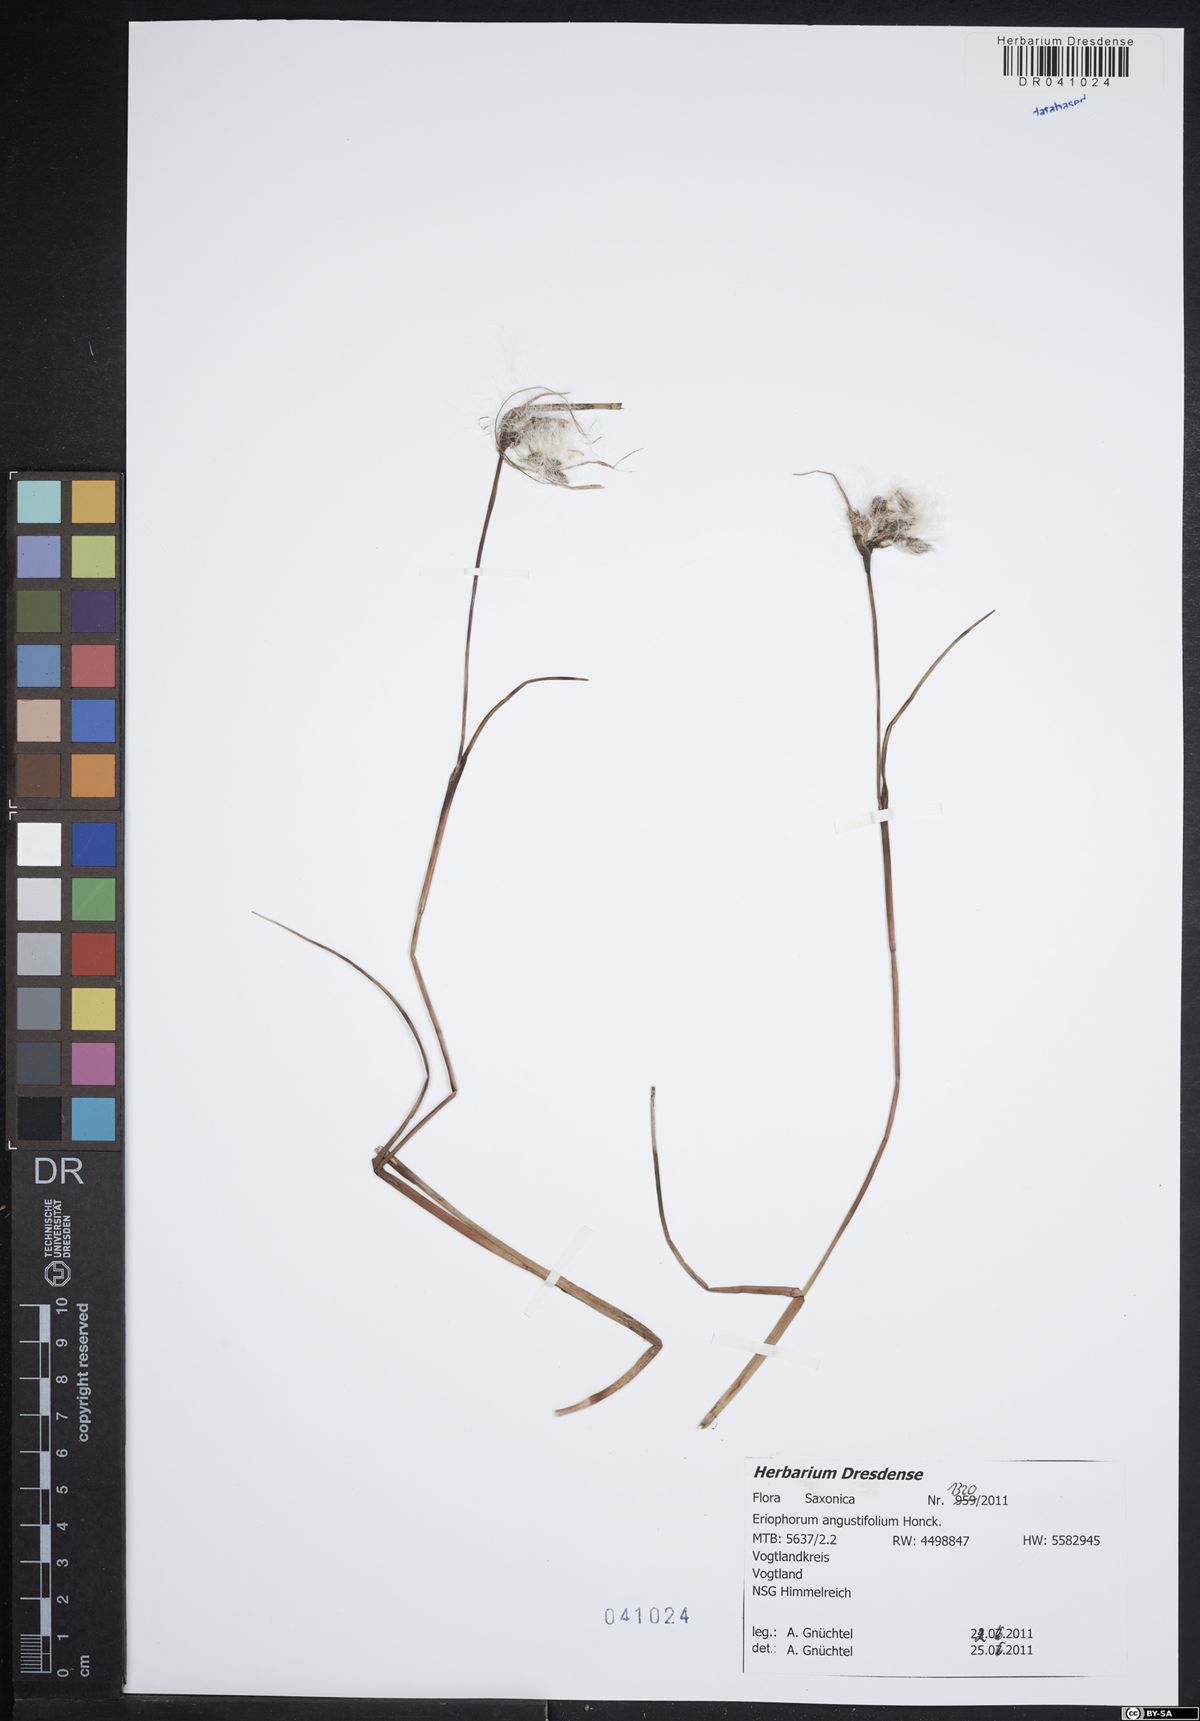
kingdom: Plantae
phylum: Tracheophyta
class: Liliopsida
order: Poales
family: Cyperaceae
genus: Eriophorum
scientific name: Eriophorum angustifolium
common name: Common cottongrass
